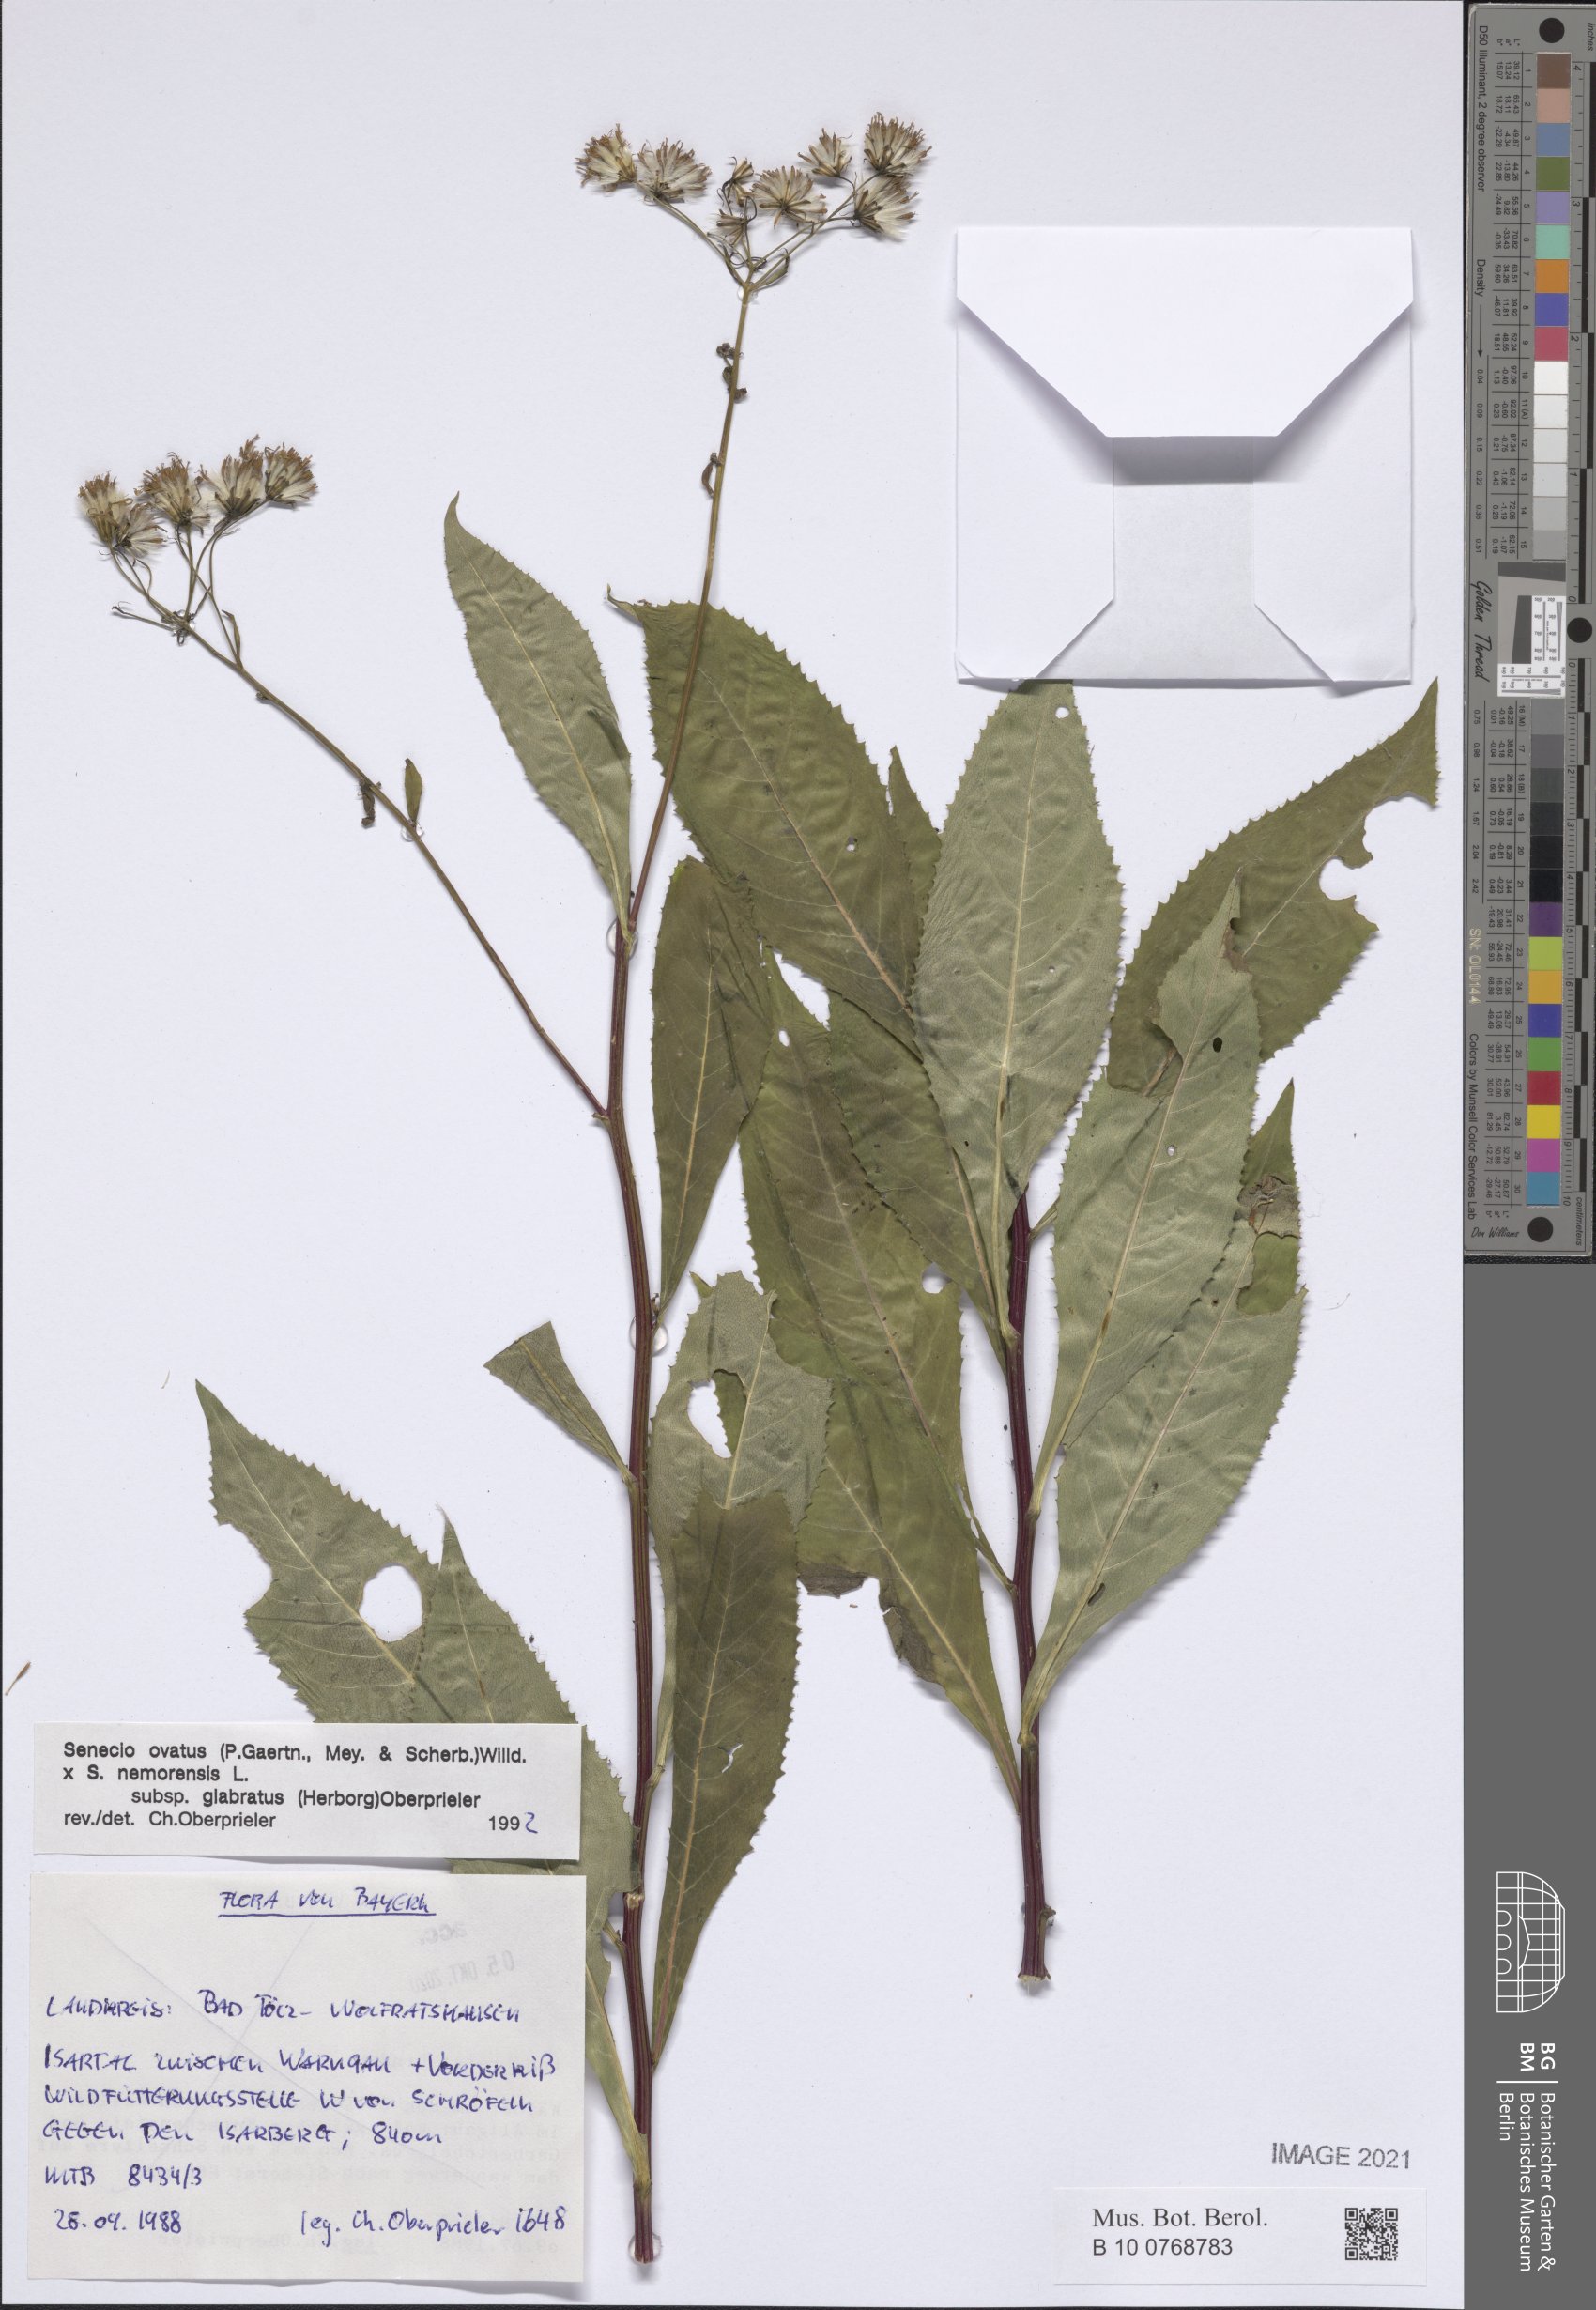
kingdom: Plantae
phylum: Tracheophyta
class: Magnoliopsida
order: Asterales
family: Asteraceae
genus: Senecio
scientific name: Senecio ovatus
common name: Wood ragwort
